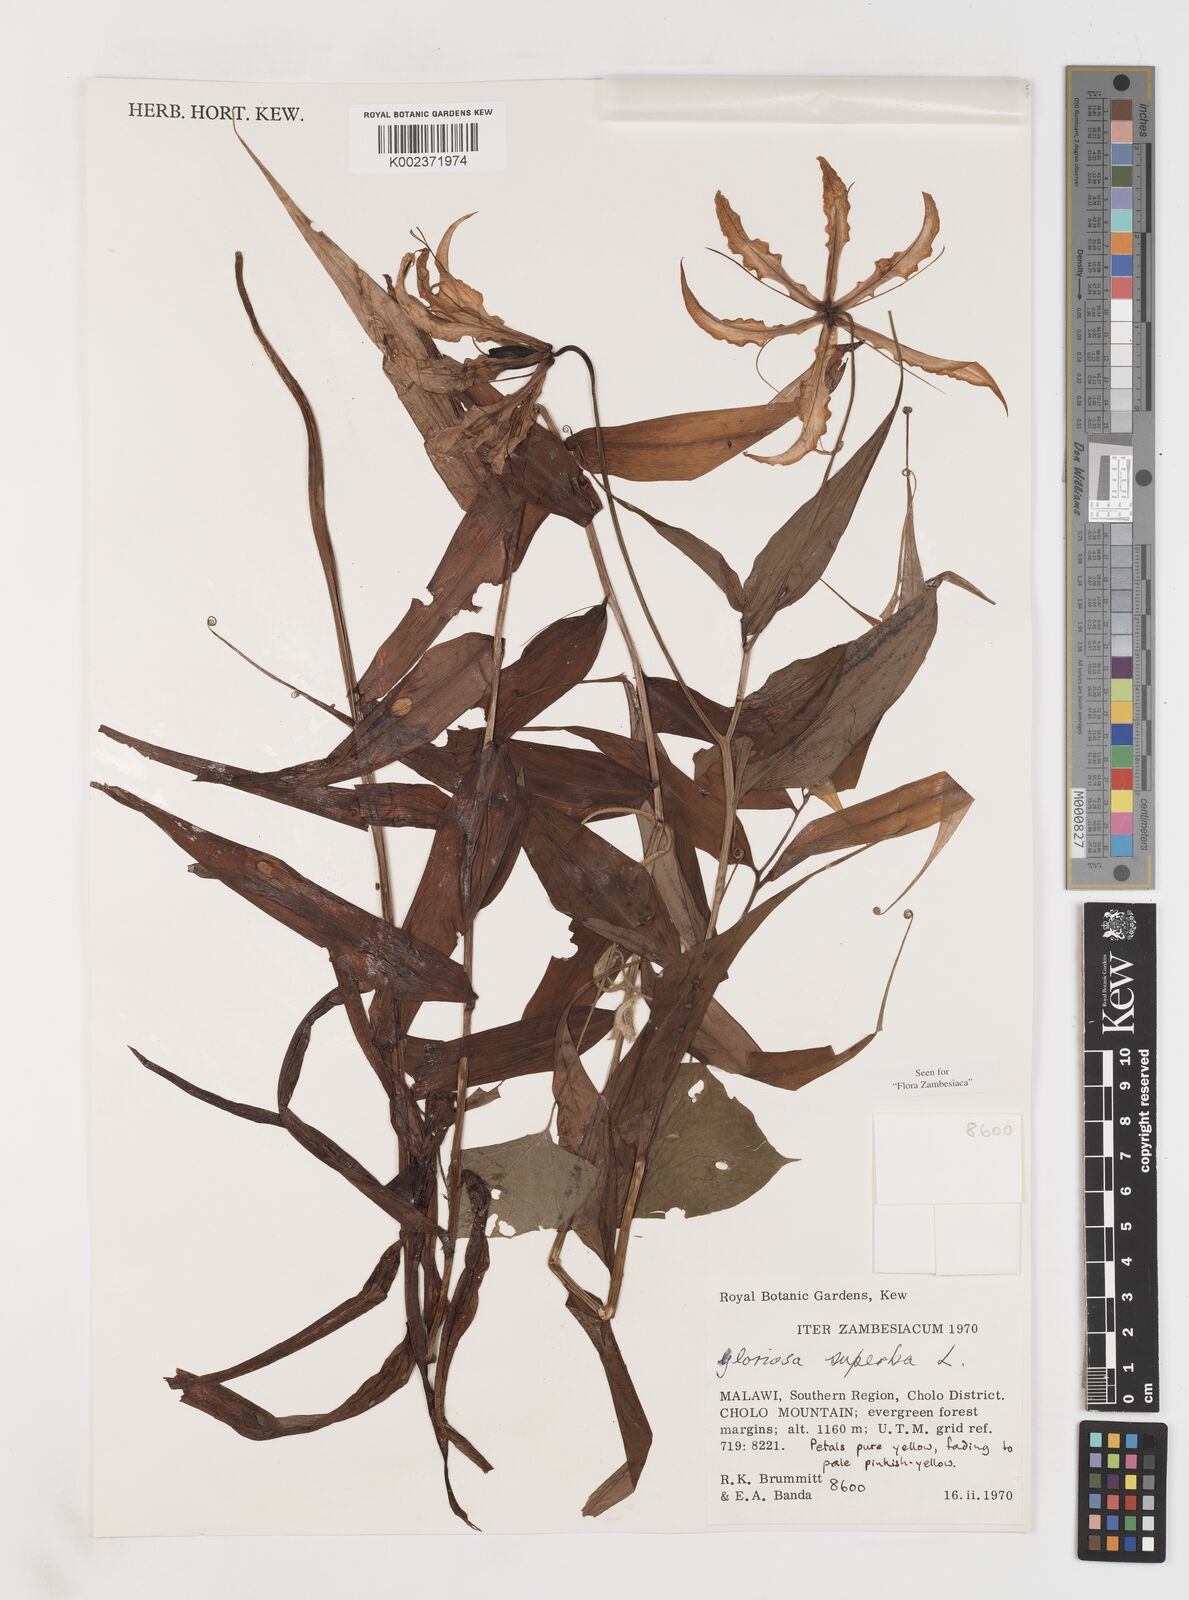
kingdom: Plantae
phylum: Tracheophyta
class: Liliopsida
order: Liliales
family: Colchicaceae
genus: Gloriosa
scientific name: Gloriosa superba
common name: Flame lily
